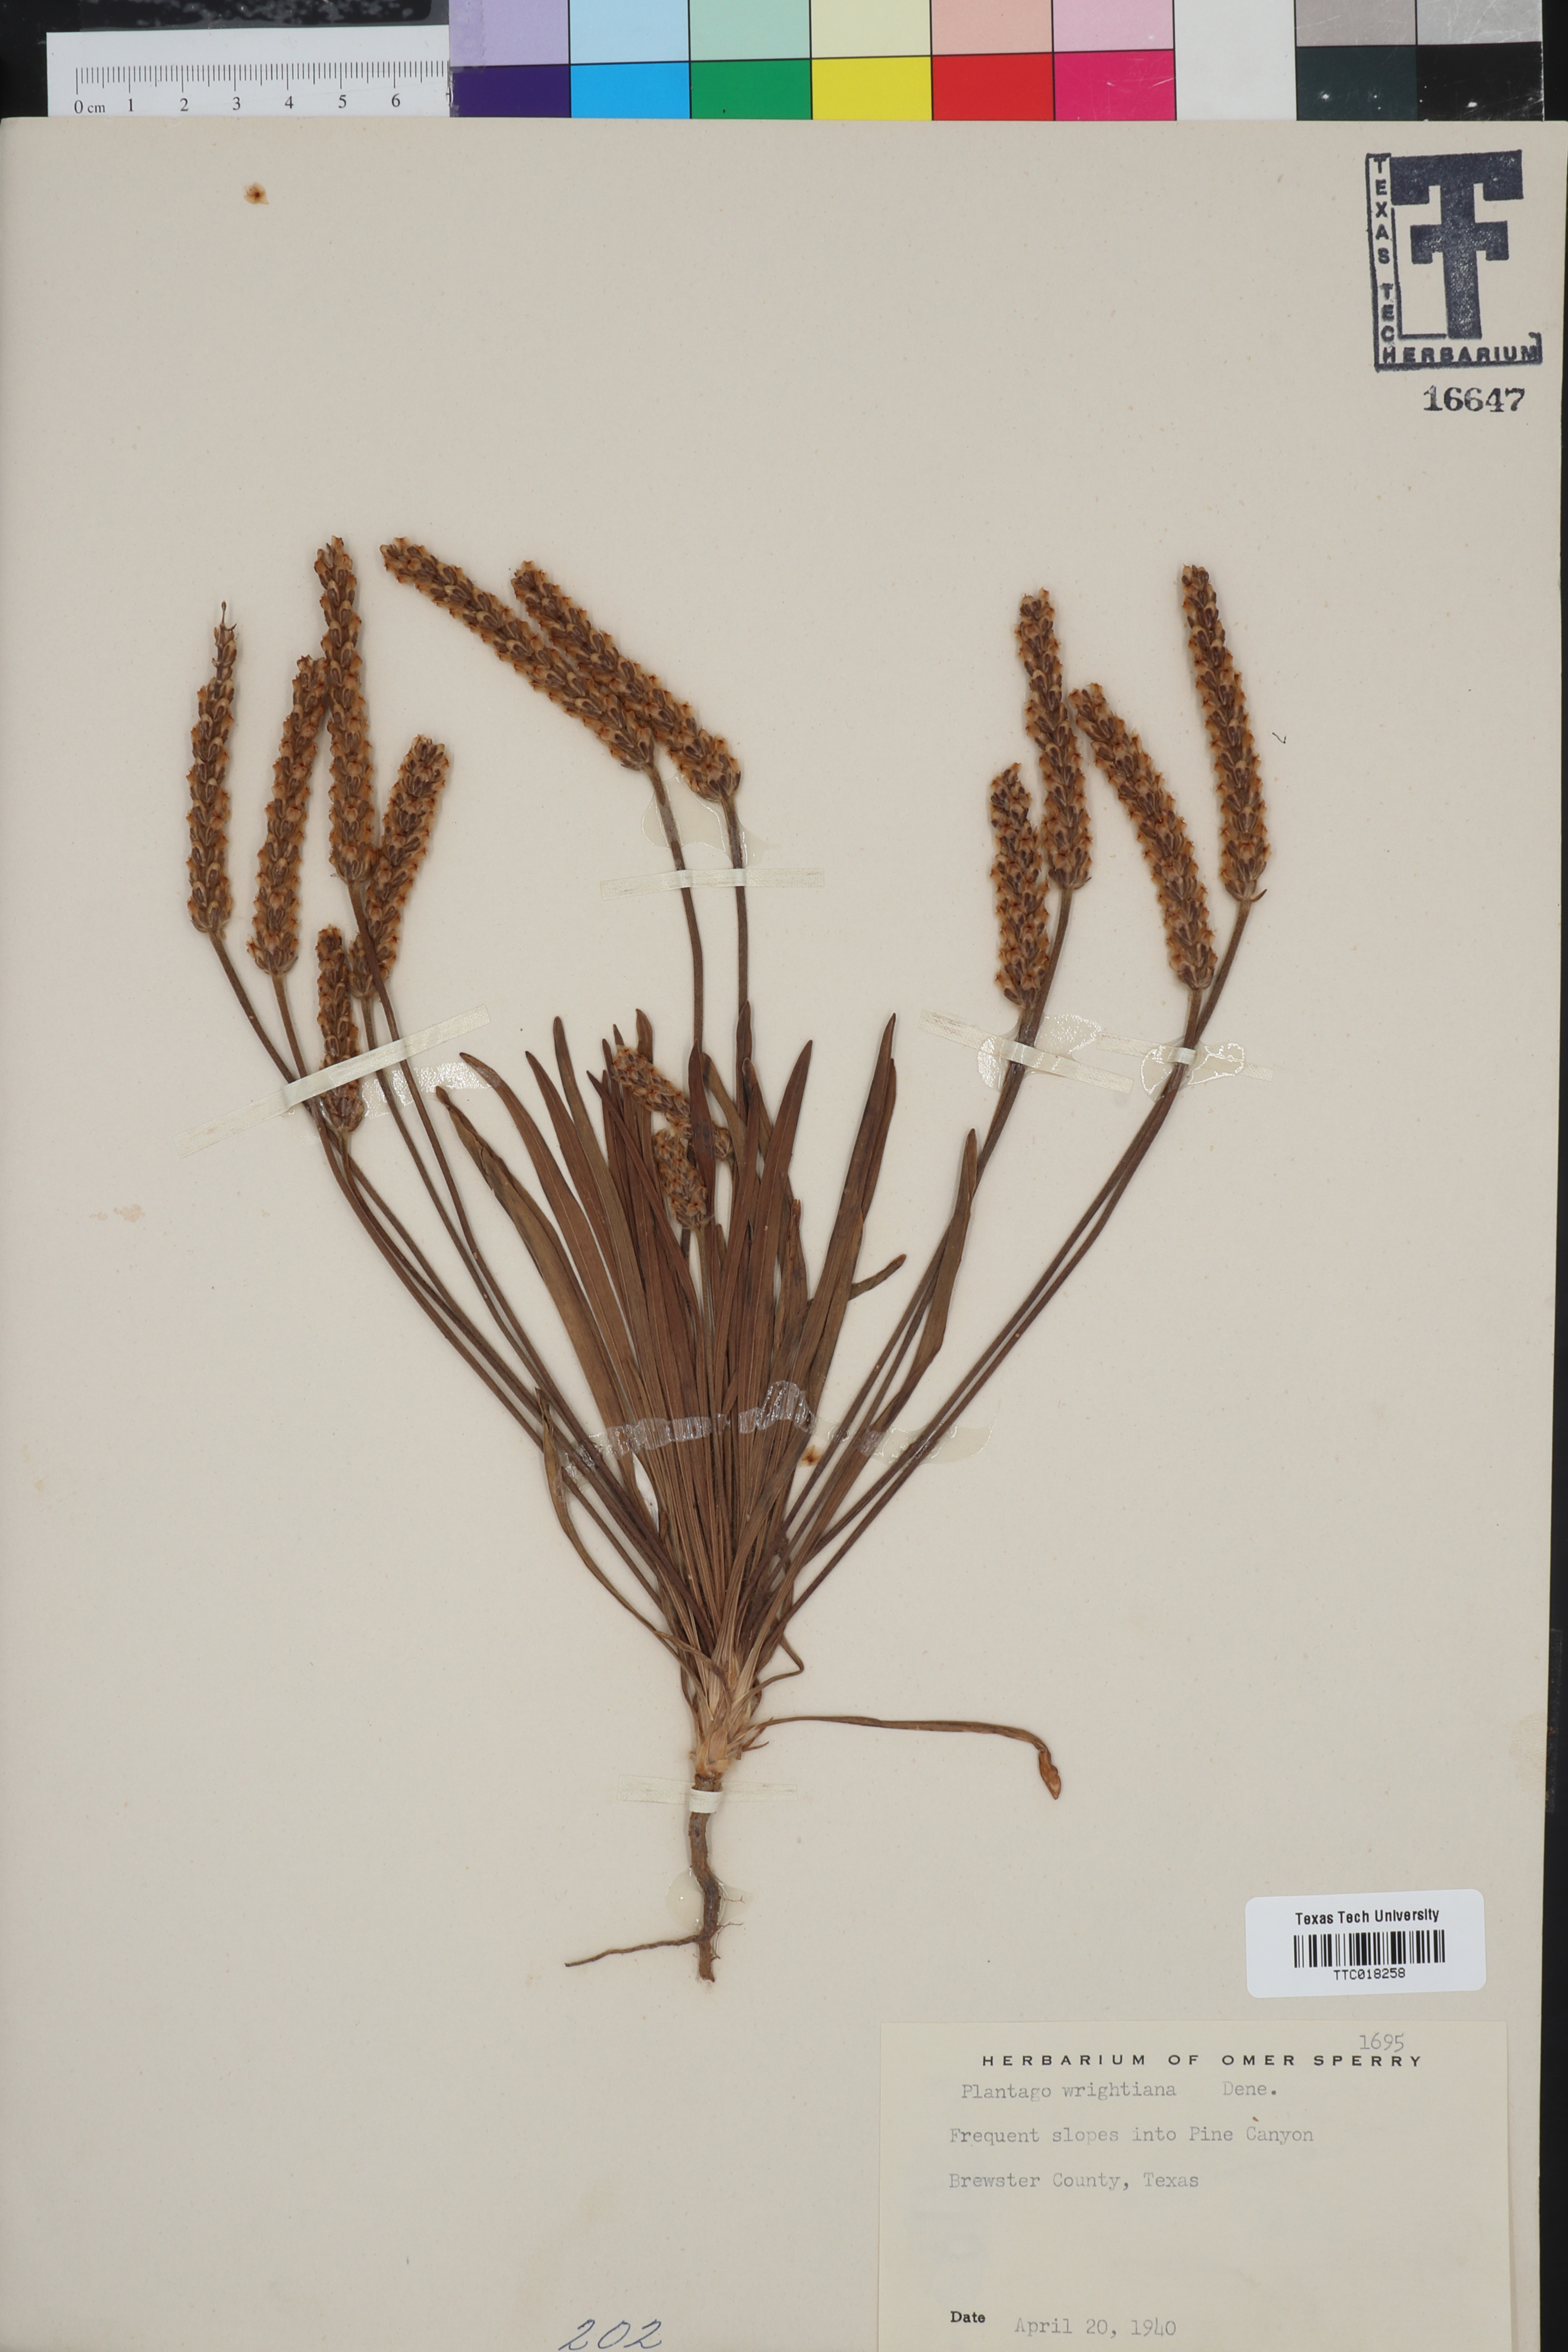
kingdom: Plantae
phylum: Tracheophyta
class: Magnoliopsida
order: Lamiales
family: Plantaginaceae
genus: Plantago
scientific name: Plantago wrightiana
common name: Wright's plantain
